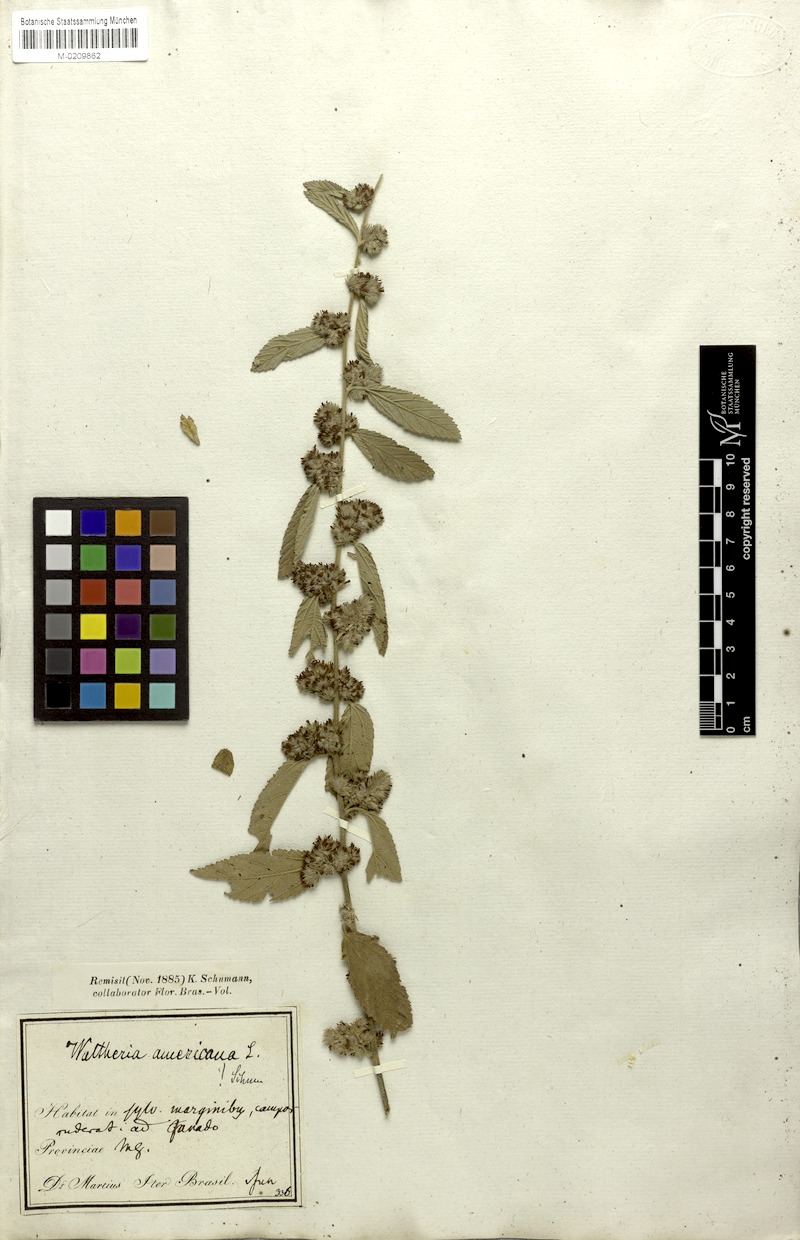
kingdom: Plantae
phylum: Tracheophyta
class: Magnoliopsida
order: Malvales
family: Malvaceae
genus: Waltheria
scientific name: Waltheria indica
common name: Leather-coat
